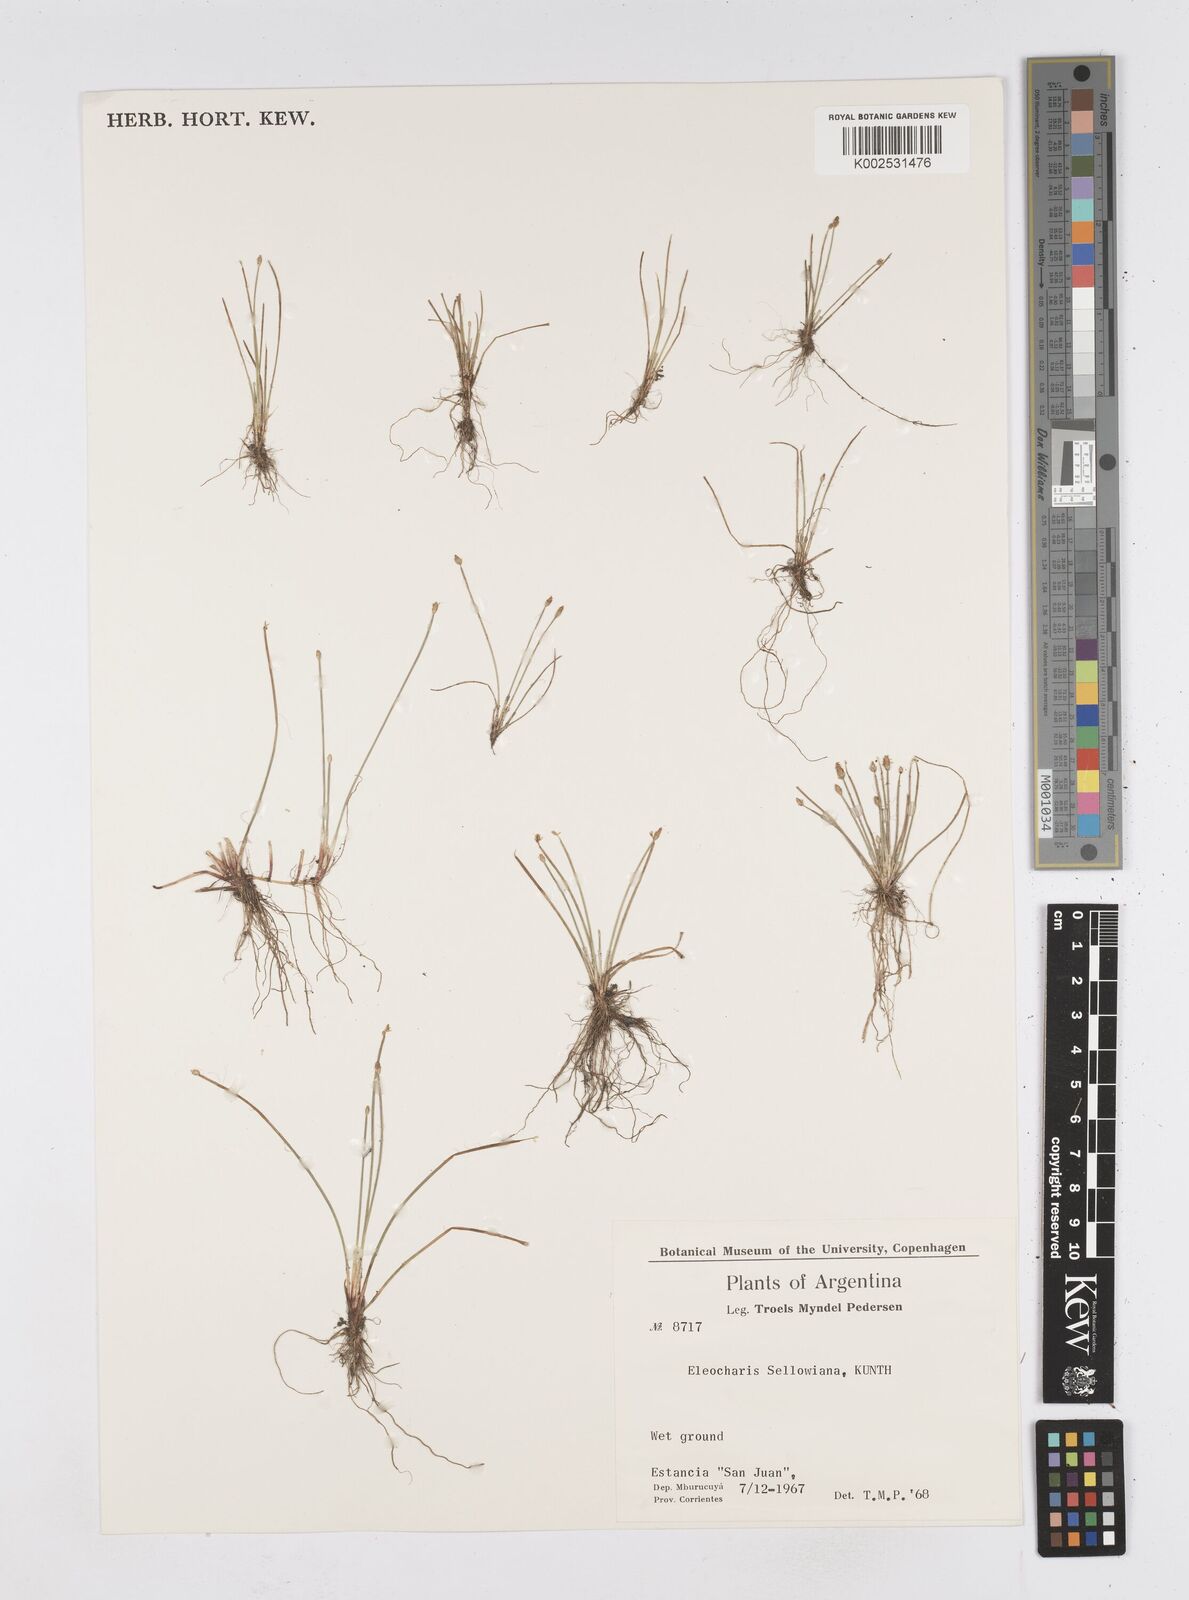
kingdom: Plantae
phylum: Tracheophyta
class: Liliopsida
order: Poales
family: Cyperaceae
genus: Eleocharis
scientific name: Eleocharis sellowiana
